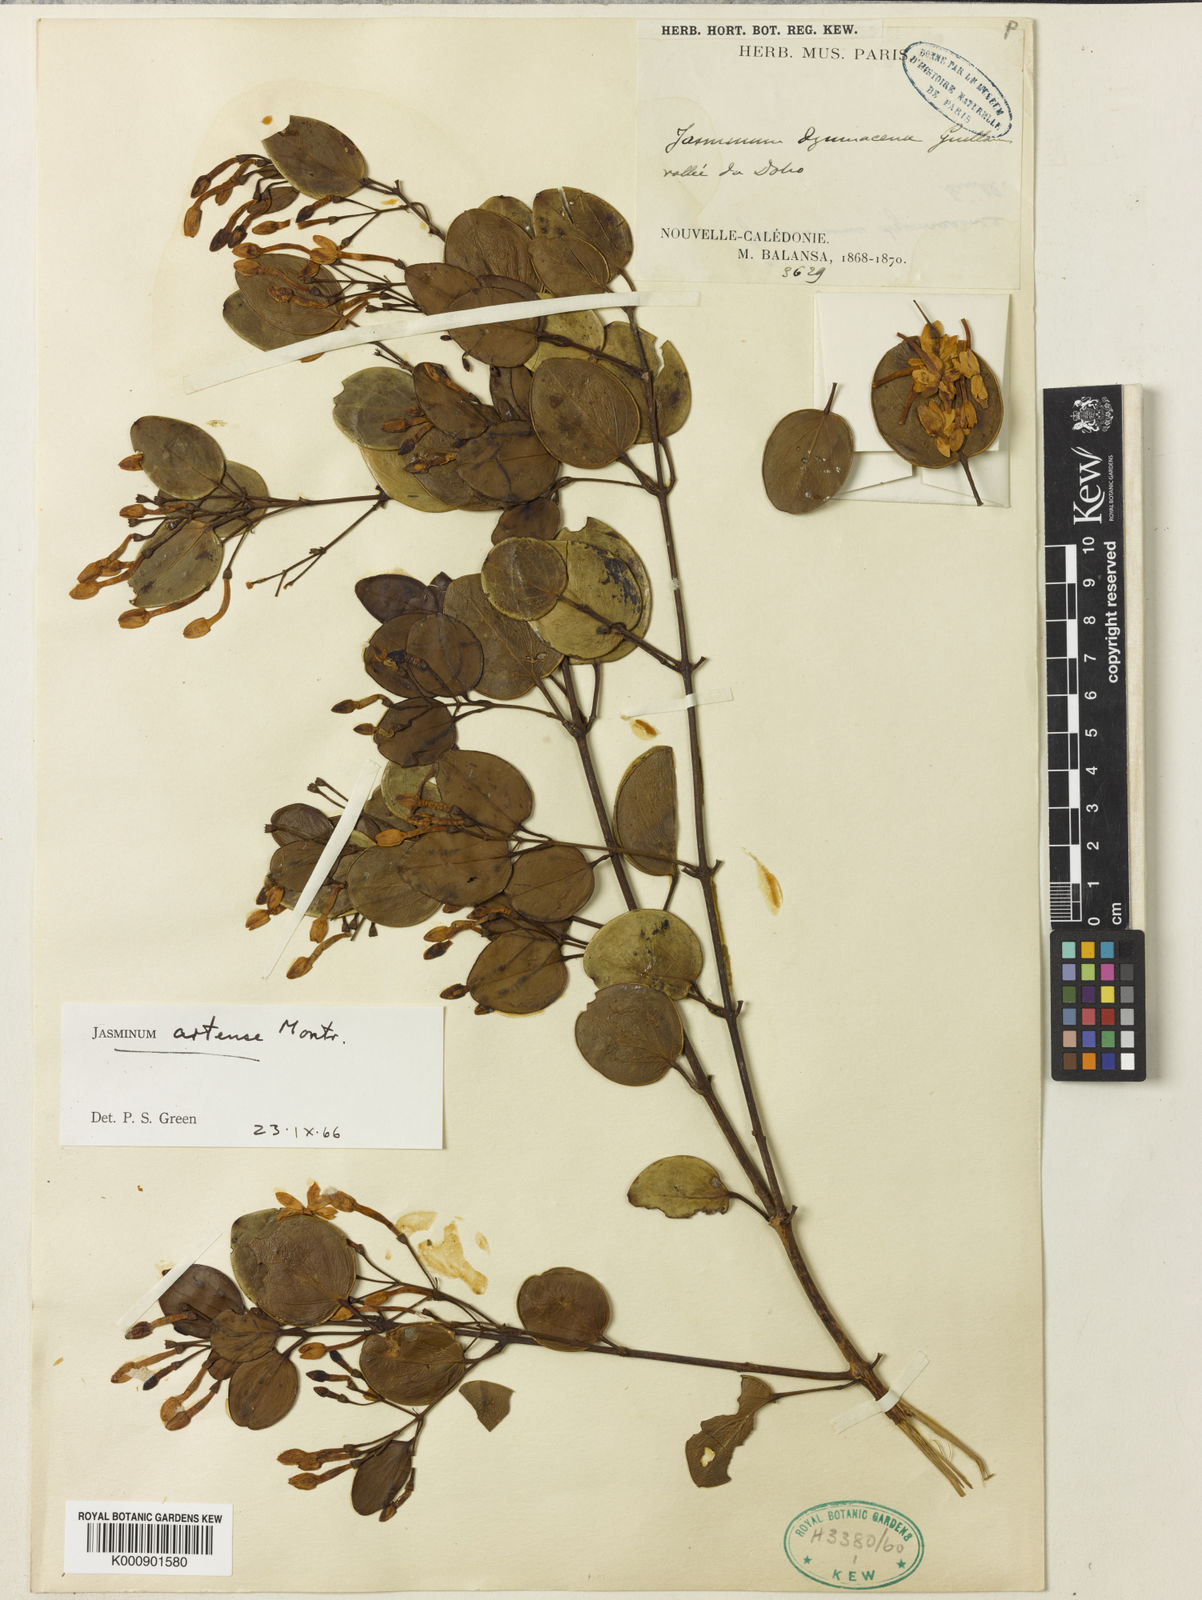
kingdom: Plantae
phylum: Tracheophyta
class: Magnoliopsida
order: Lamiales
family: Oleaceae
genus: Jasminum
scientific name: Jasminum artense
